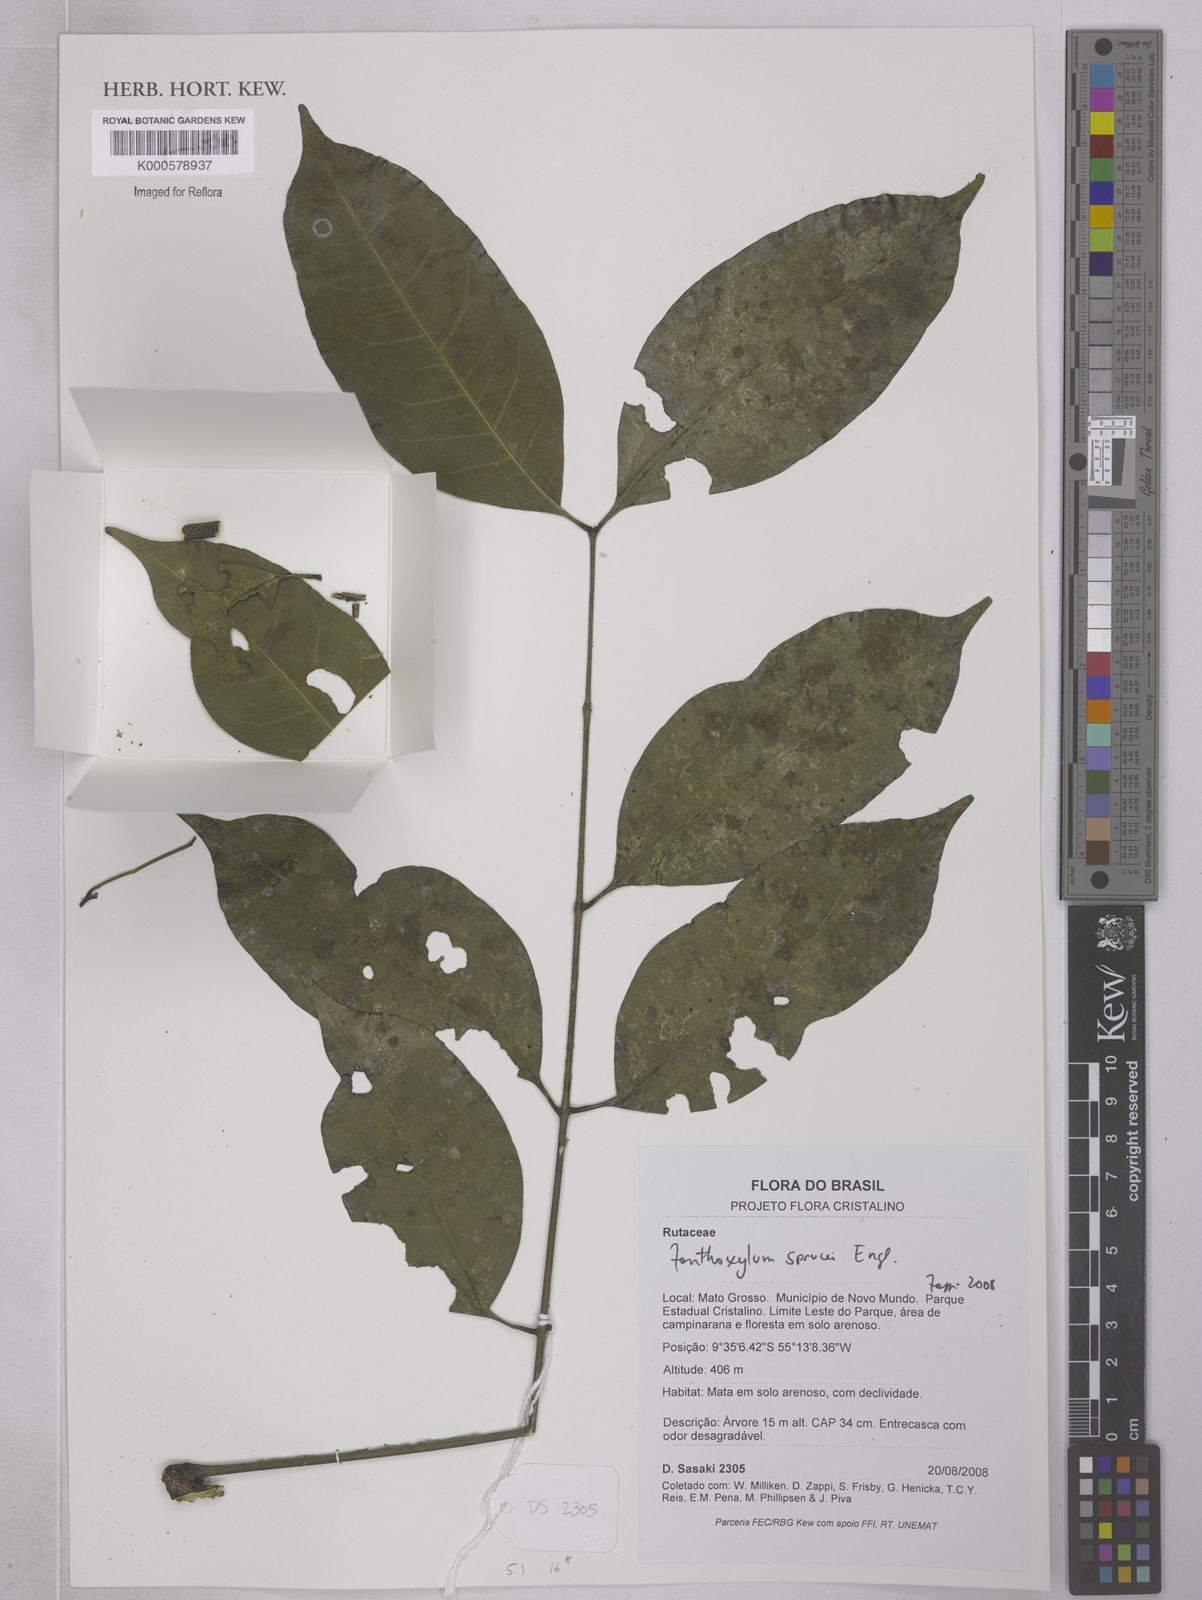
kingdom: Plantae
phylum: Tracheophyta
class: Magnoliopsida
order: Sapindales
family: Rutaceae
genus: Zanthoxylum
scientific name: Zanthoxylum sprucei
